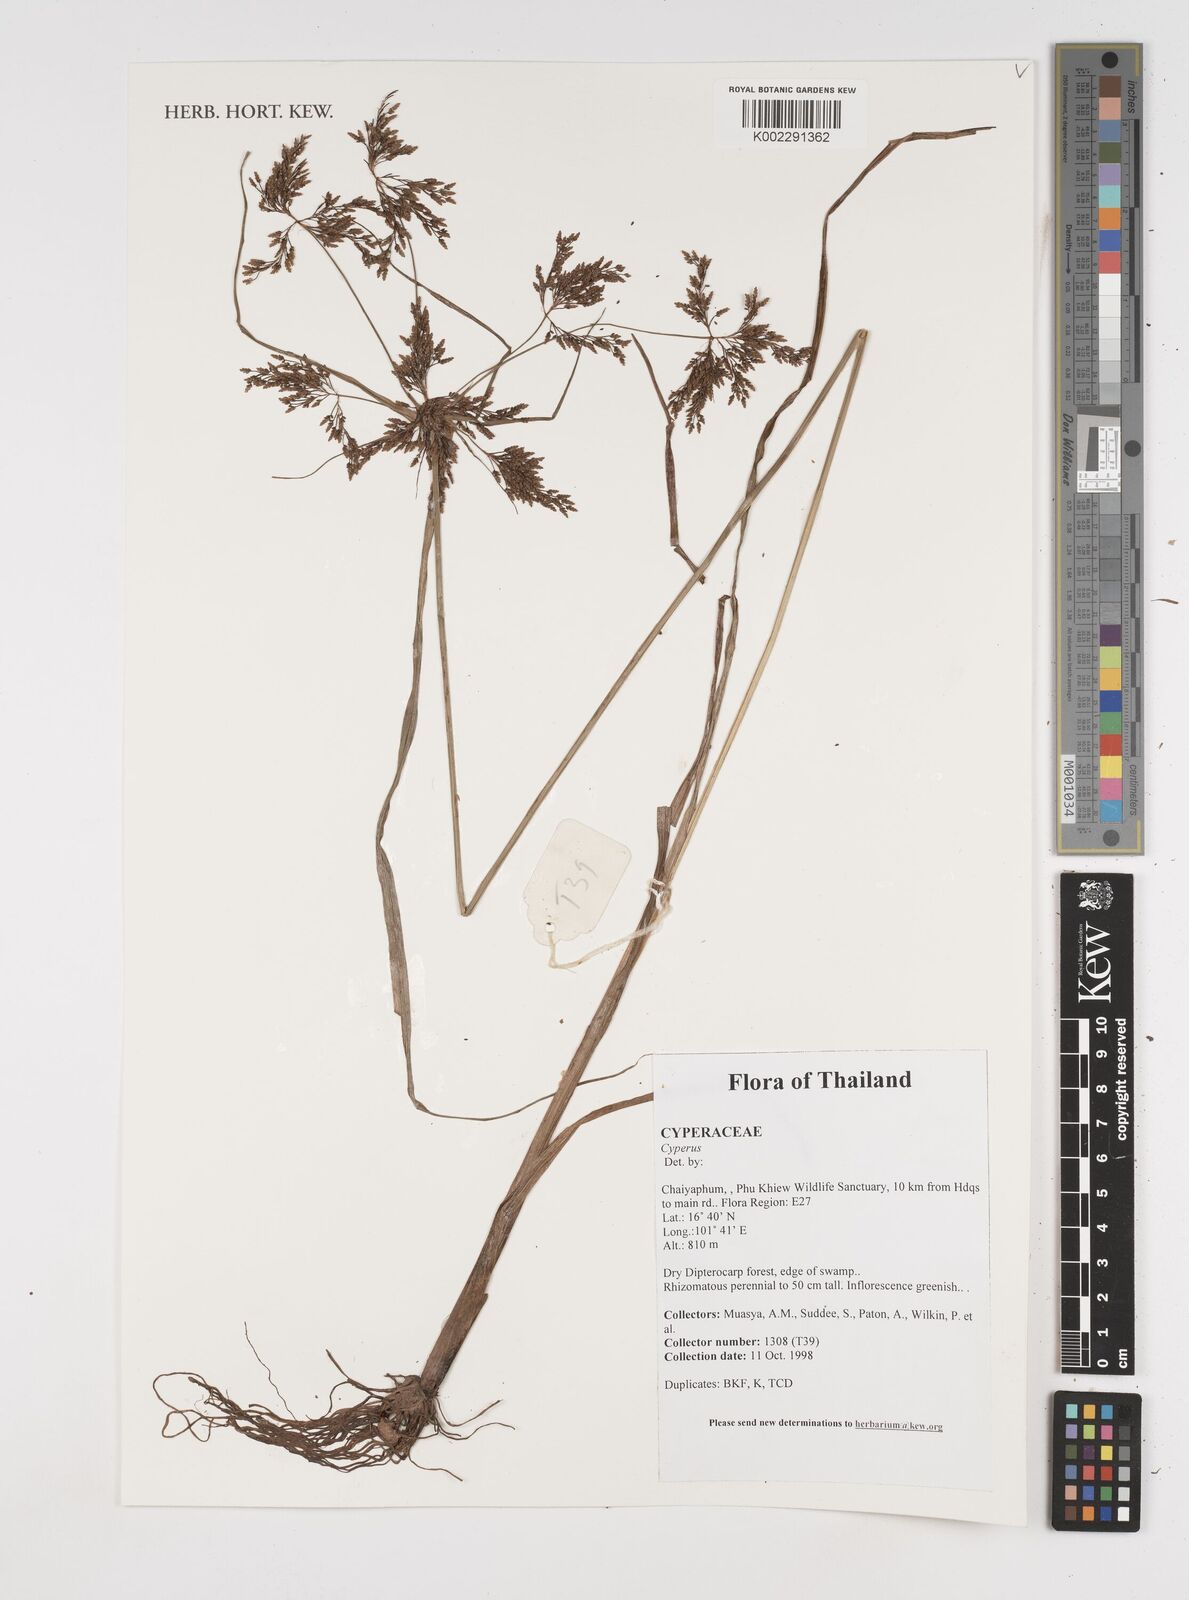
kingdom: Plantae
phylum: Tracheophyta
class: Liliopsida
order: Poales
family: Cyperaceae
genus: Cyperus
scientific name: Cyperus
